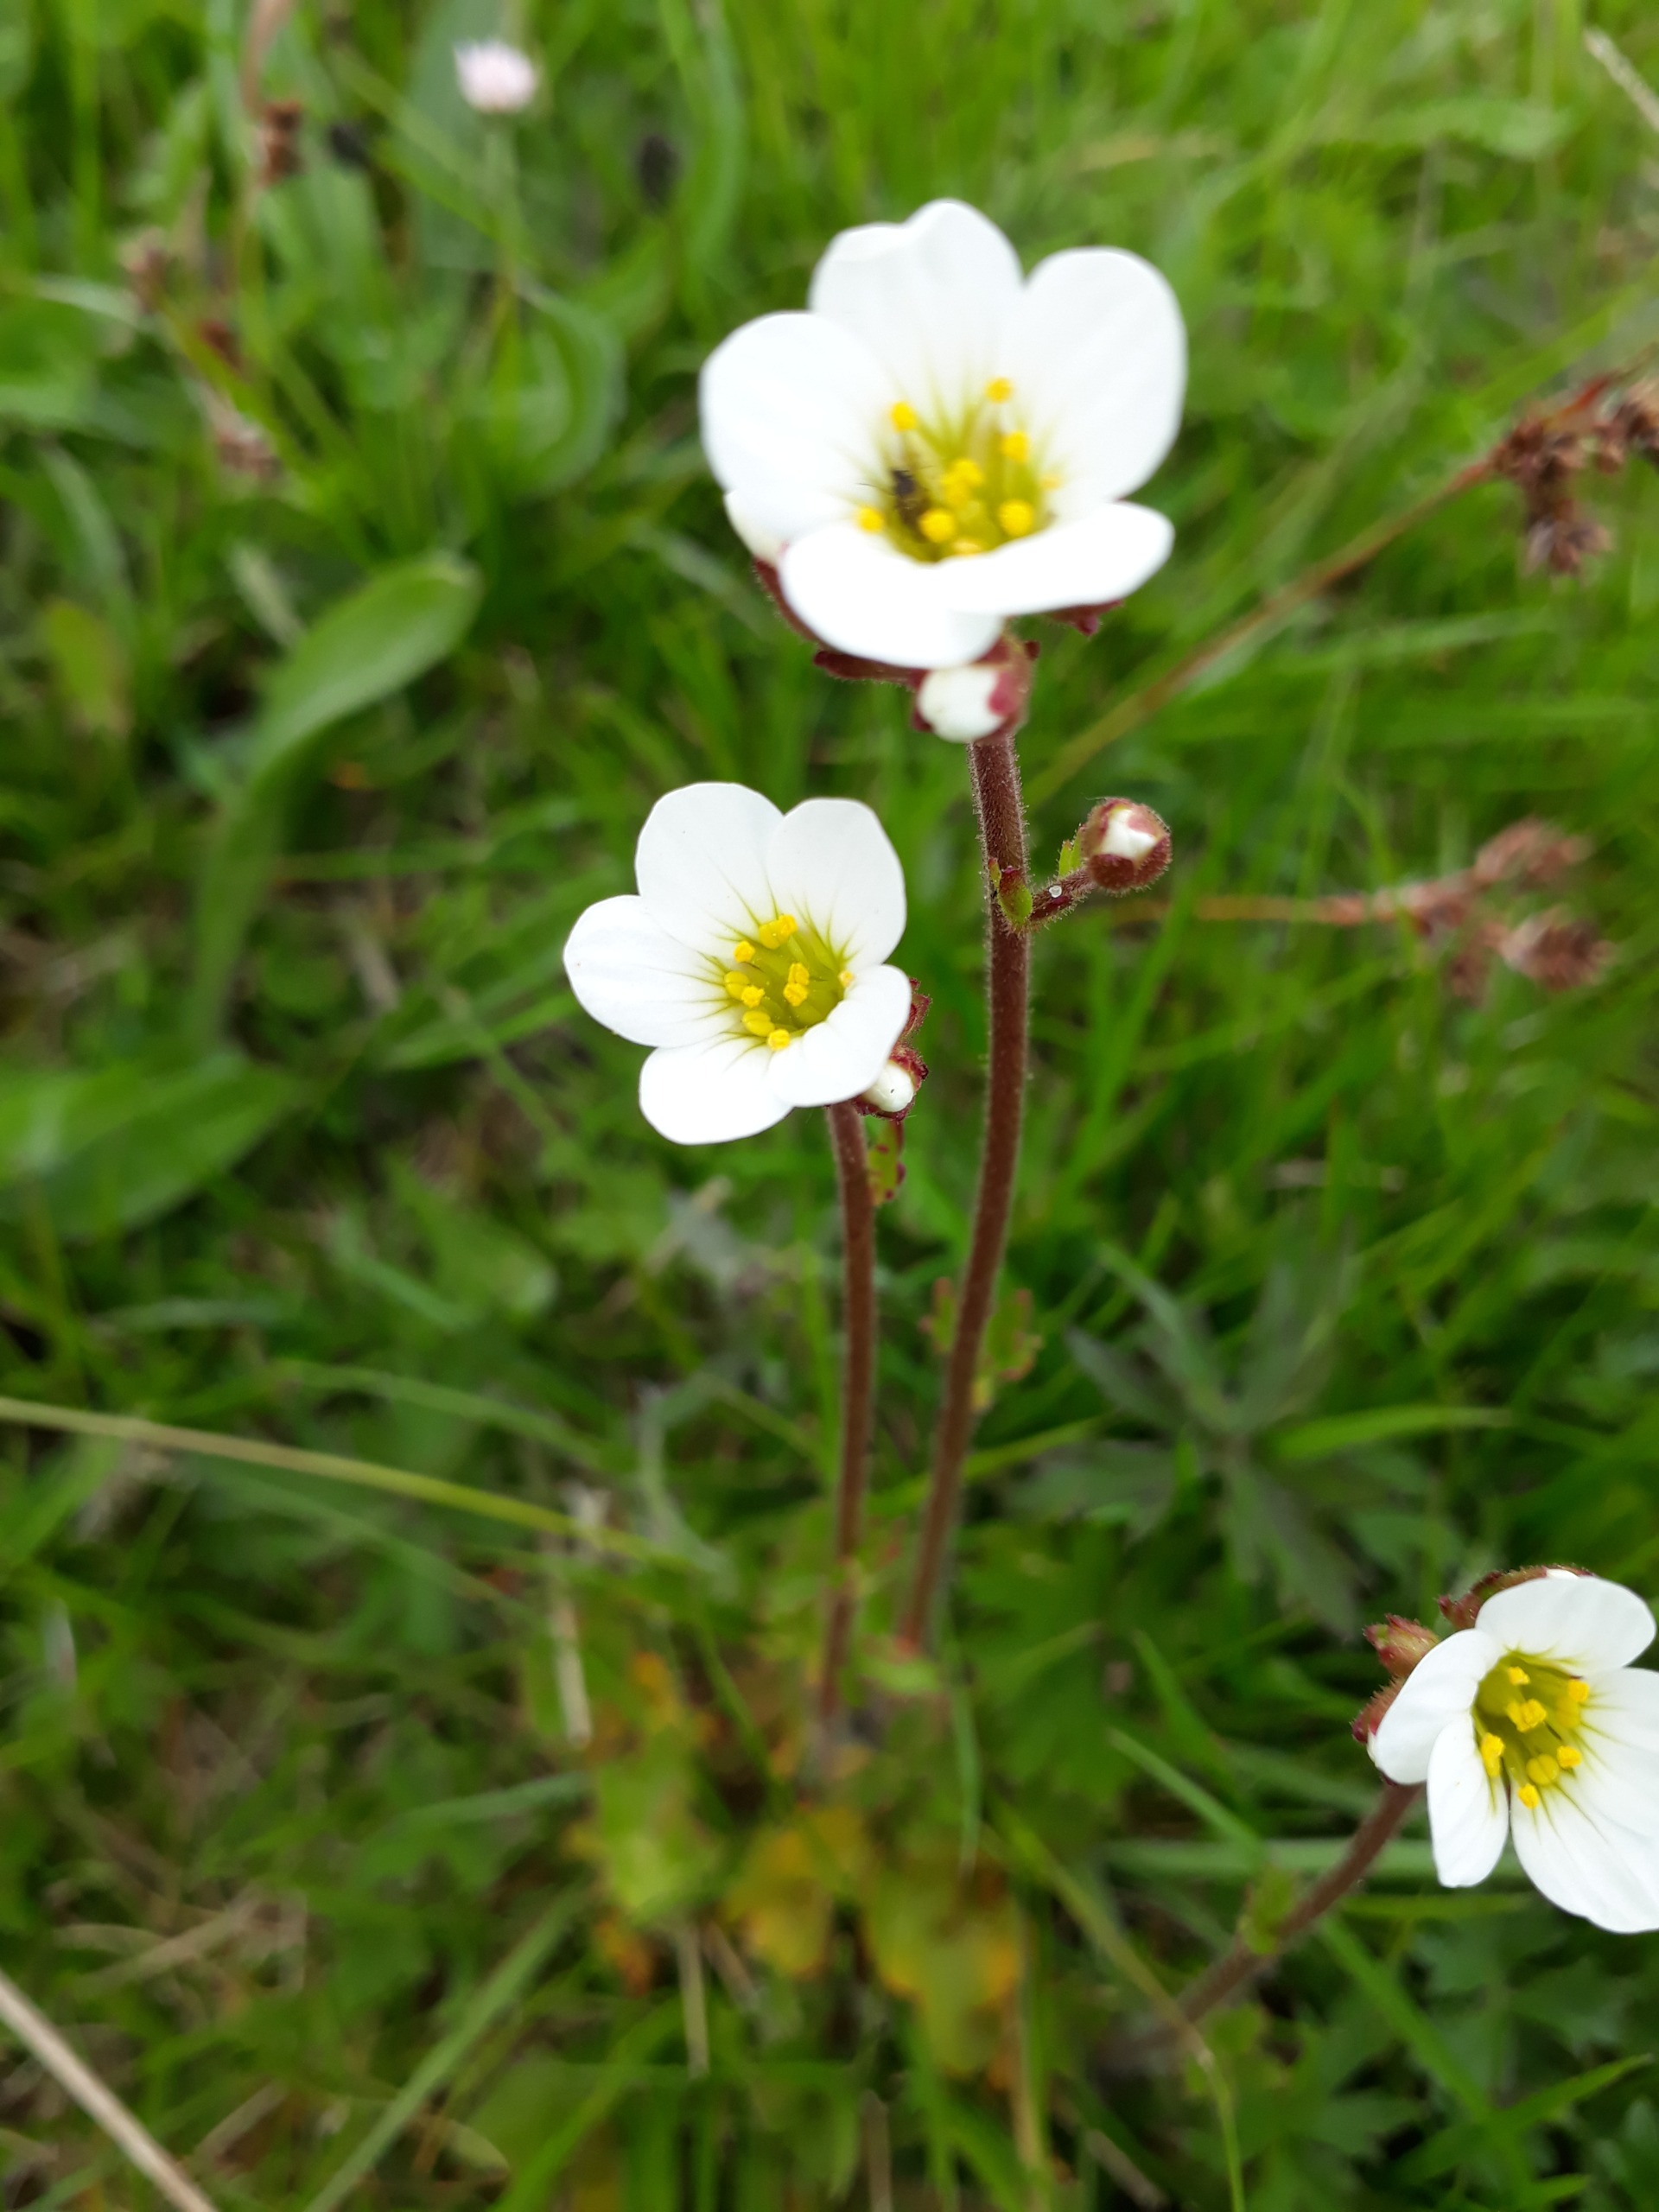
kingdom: Plantae
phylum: Tracheophyta
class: Magnoliopsida
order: Saxifragales
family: Saxifragaceae
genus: Saxifraga
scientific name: Saxifraga granulata
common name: Kornet stenbræk
